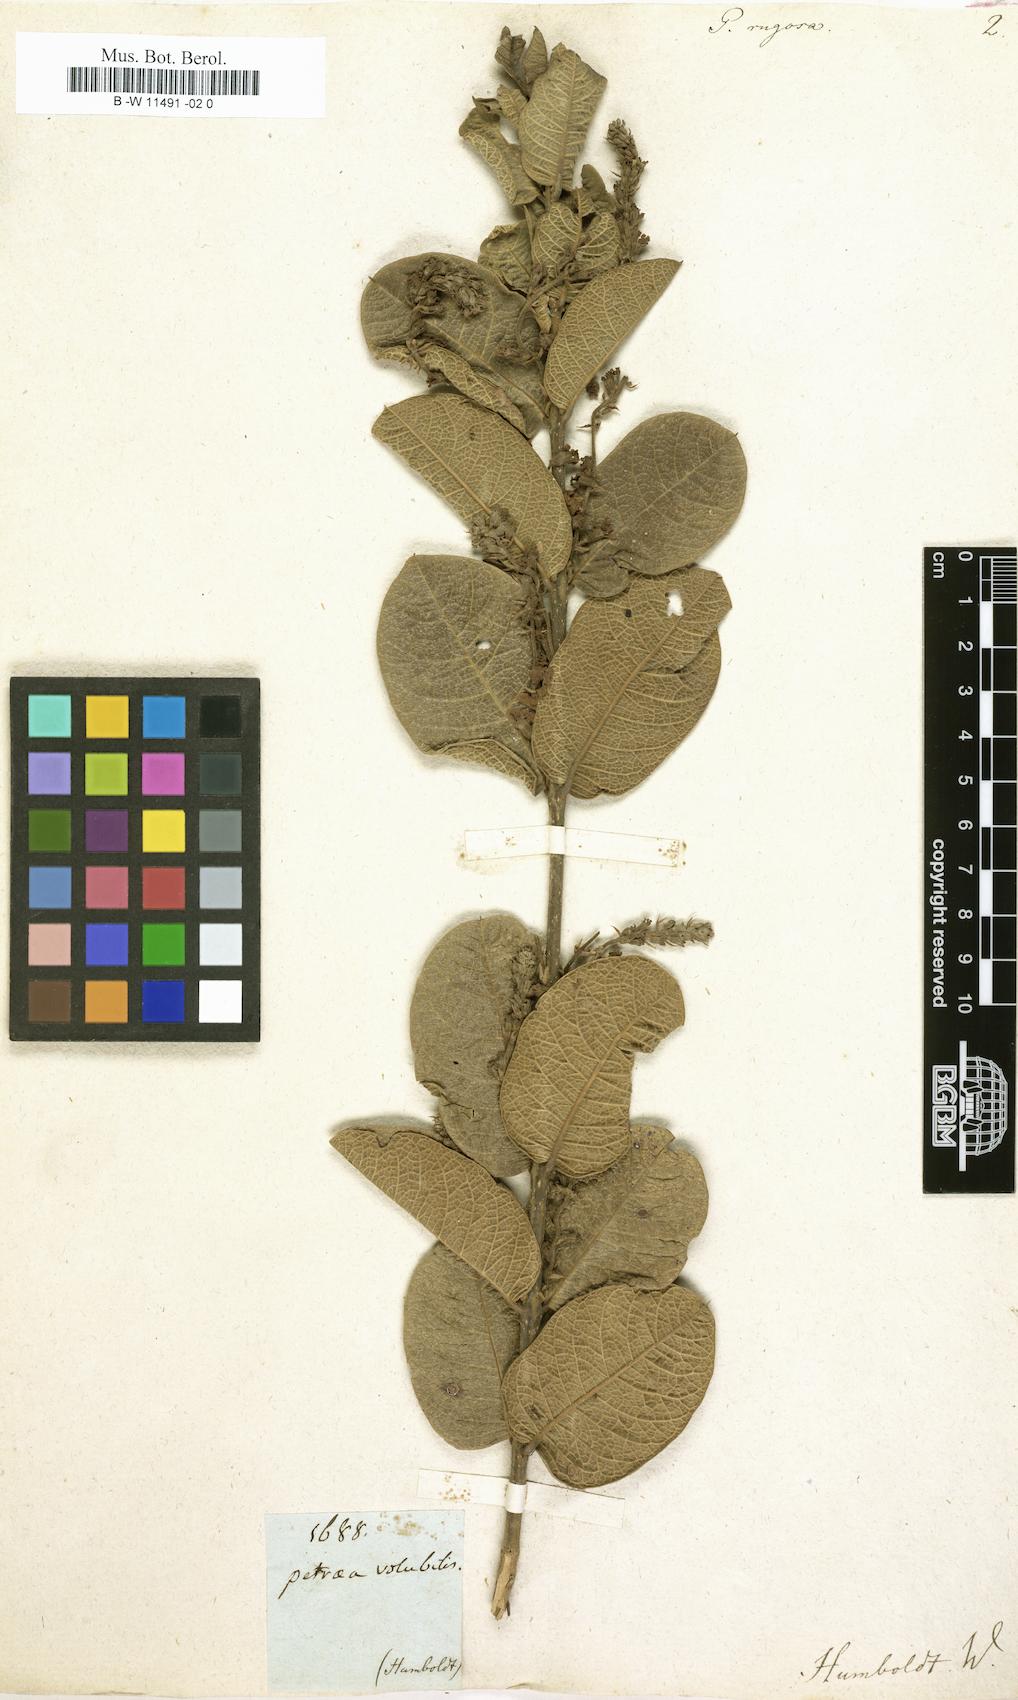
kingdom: Plantae
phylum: Tracheophyta
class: Magnoliopsida
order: Lamiales
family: Verbenaceae
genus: Petrea
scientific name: Petrea rugosa
